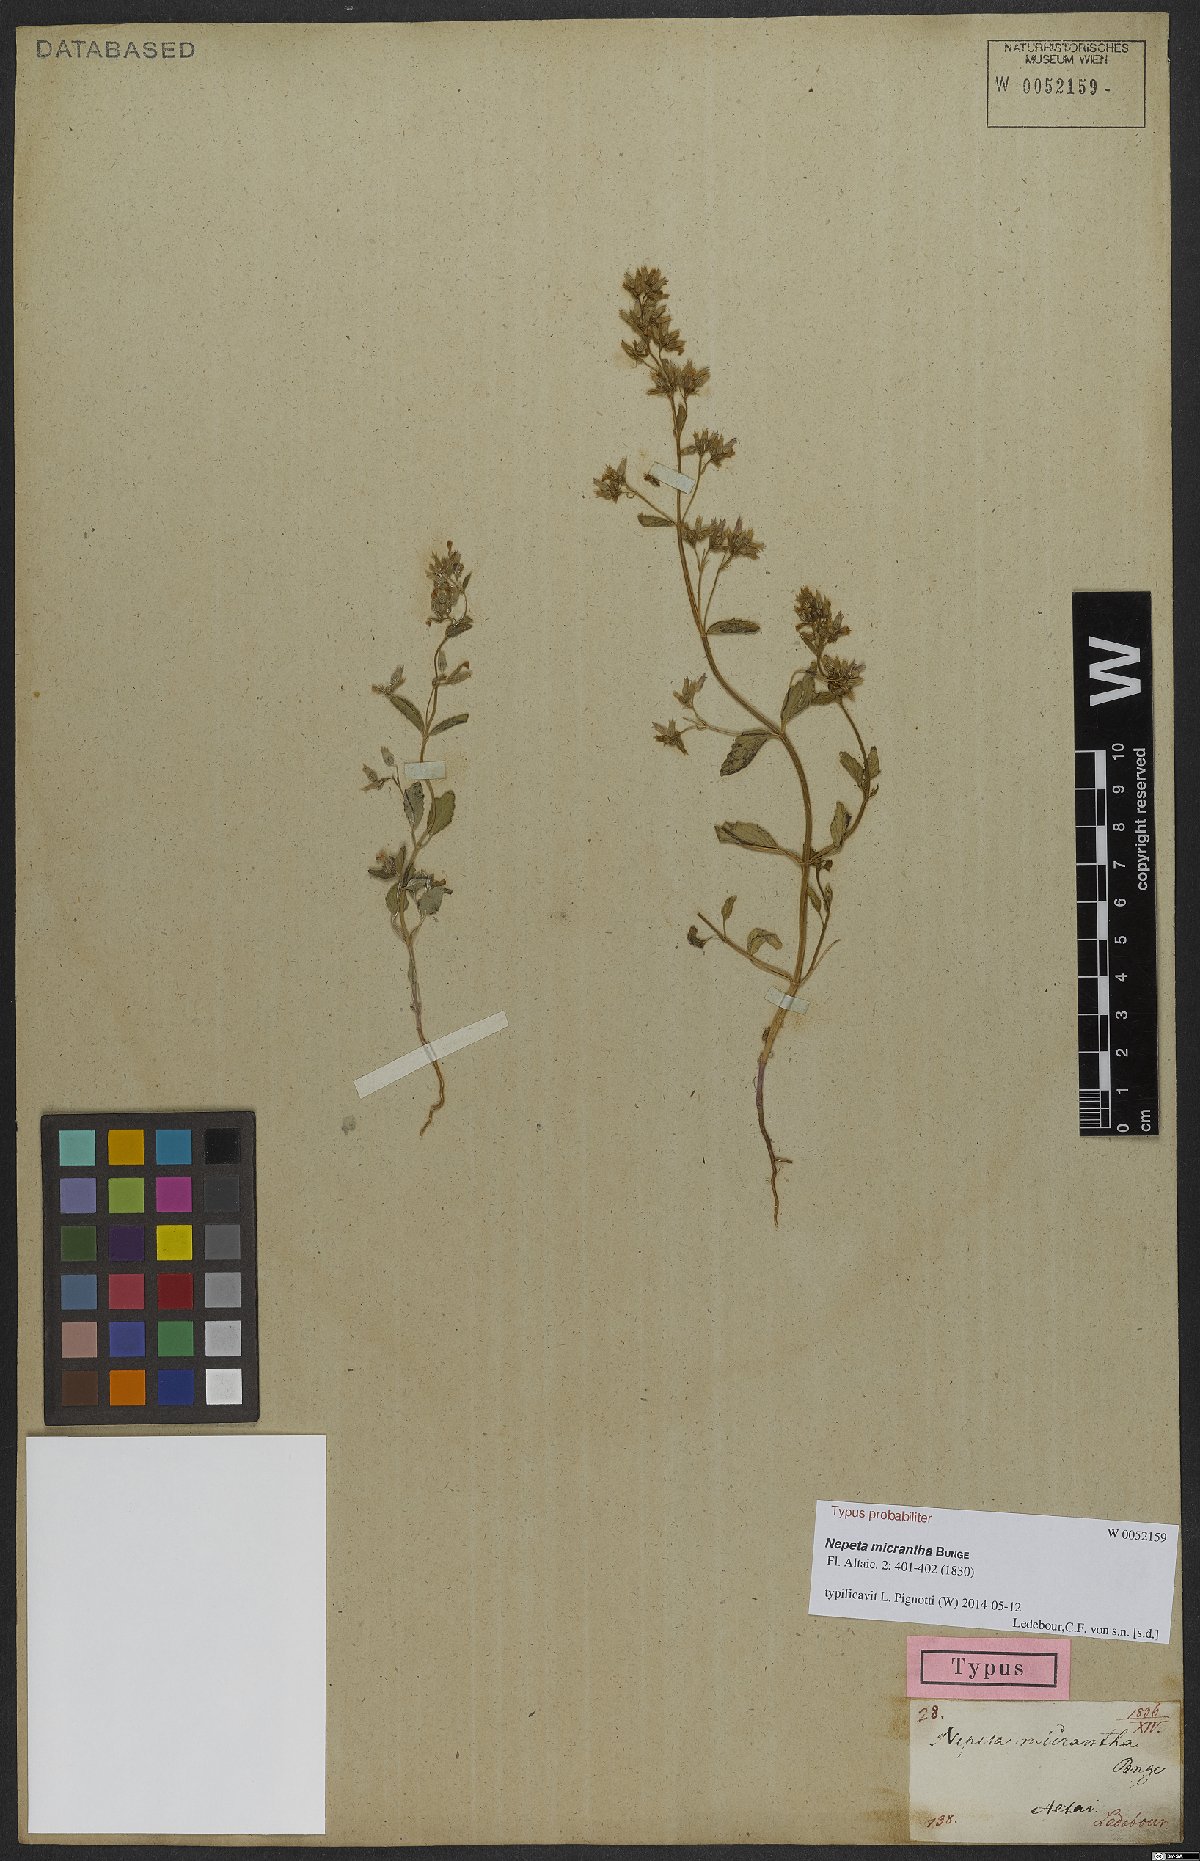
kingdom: Plantae
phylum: Tracheophyta
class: Magnoliopsida
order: Lamiales
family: Lamiaceae
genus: Nepeta
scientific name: Nepeta micrantha
